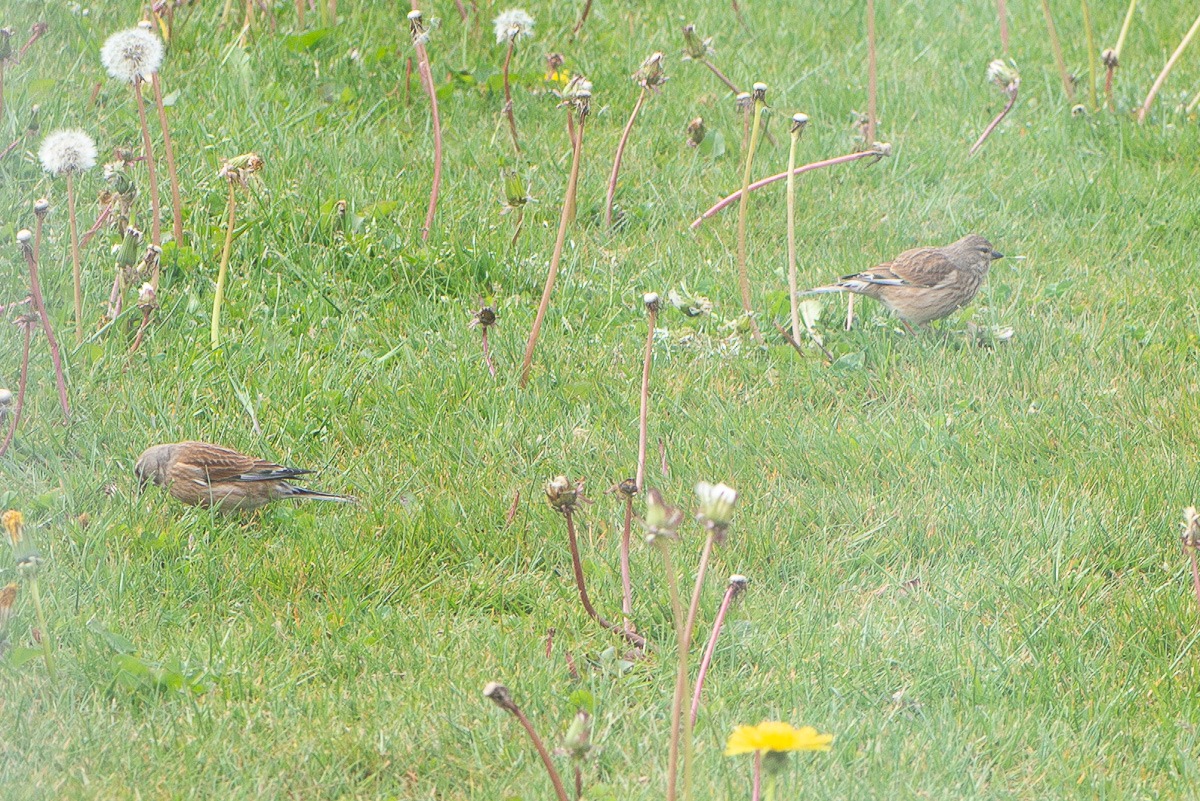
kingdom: Animalia
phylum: Chordata
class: Aves
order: Passeriformes
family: Fringillidae
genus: Linaria
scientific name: Linaria cannabina
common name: Tornirisk
